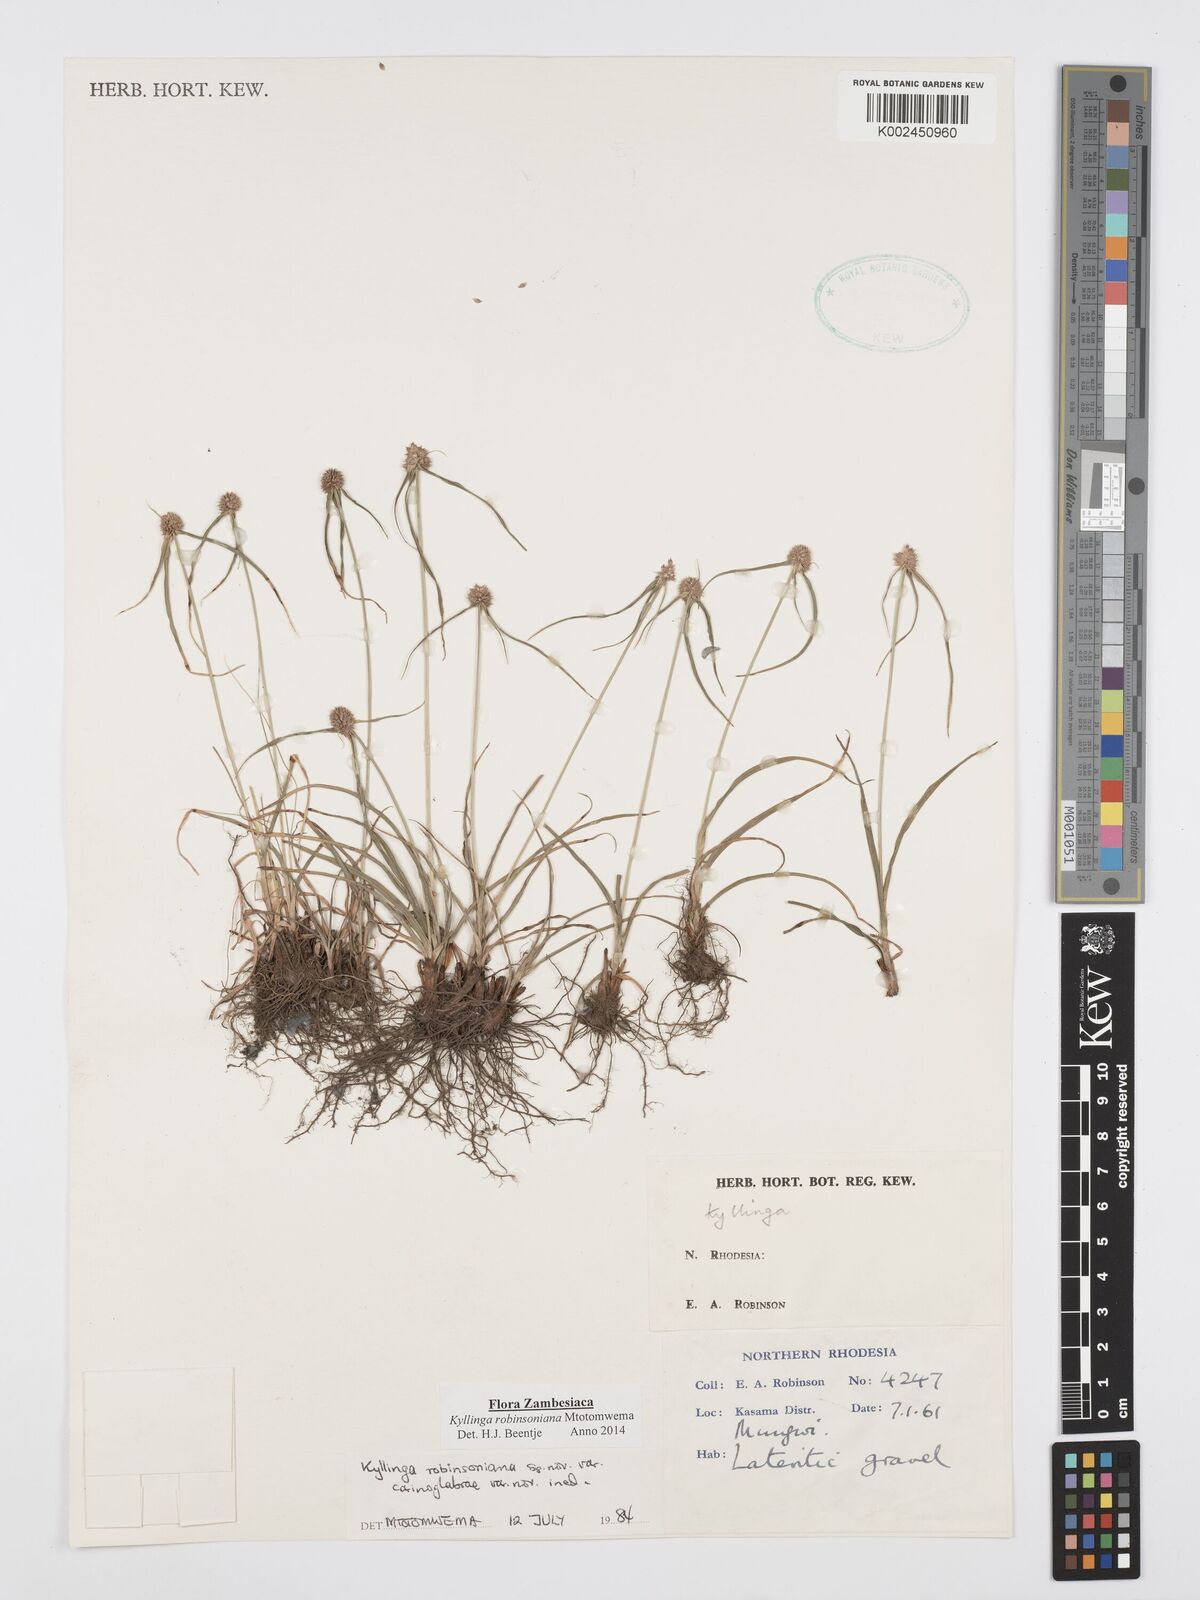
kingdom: Plantae
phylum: Tracheophyta
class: Liliopsida
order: Poales
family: Cyperaceae
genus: Cyperus
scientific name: Cyperus robinsonianus
